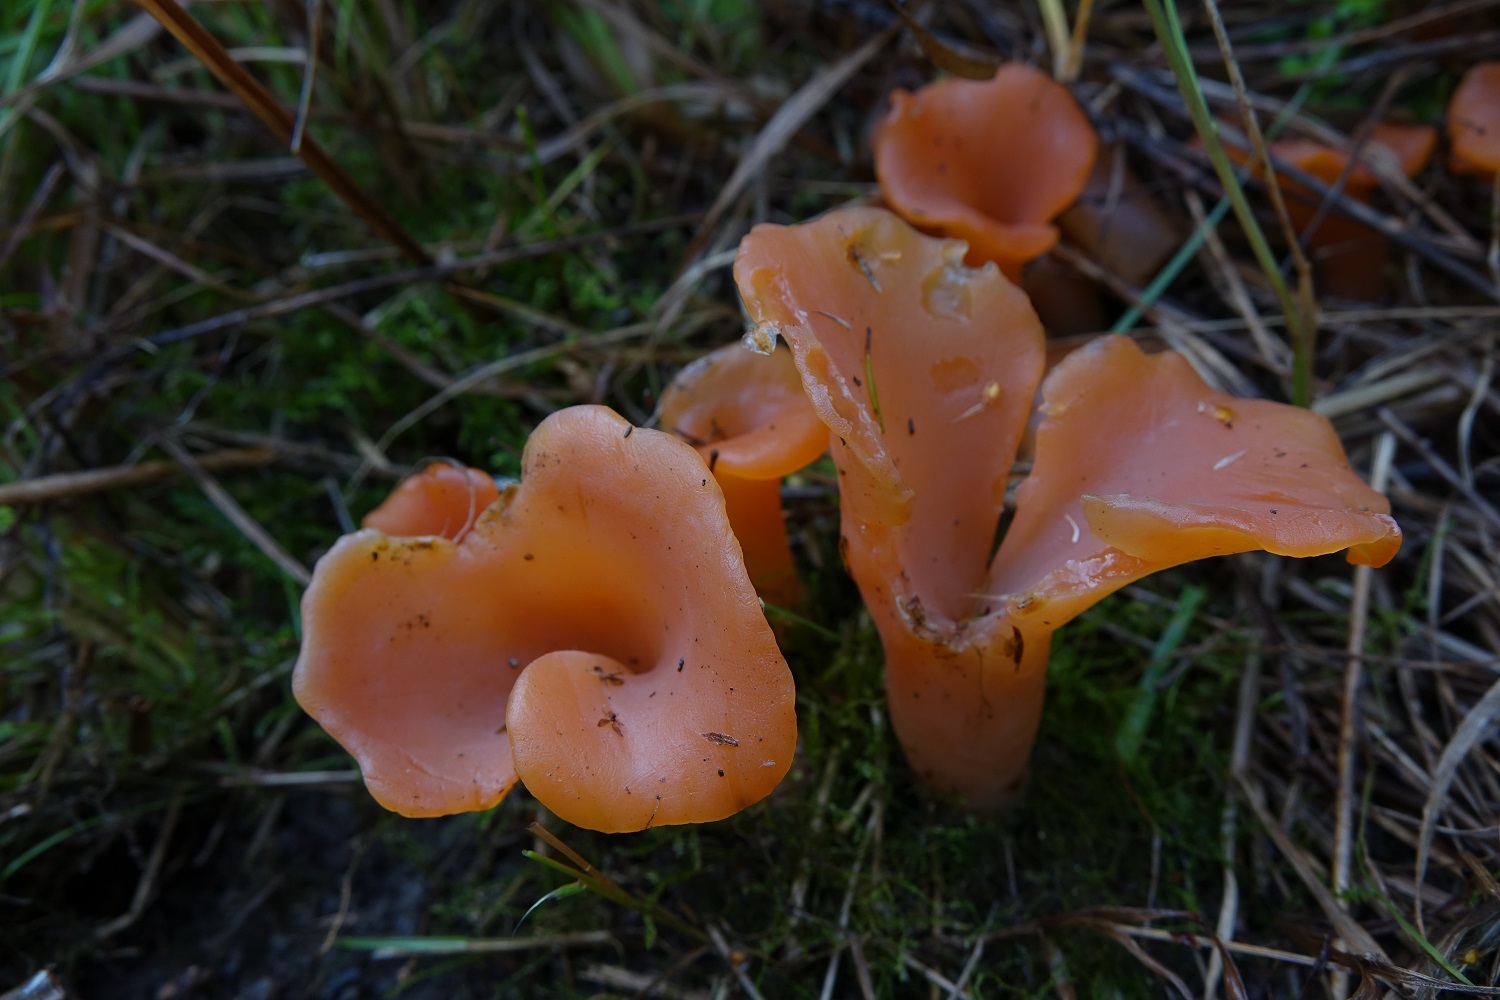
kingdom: Fungi
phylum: Basidiomycota
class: Agaricomycetes
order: Auriculariales
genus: Guepinia
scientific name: Guepinia helvelloides
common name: Salmon salad
